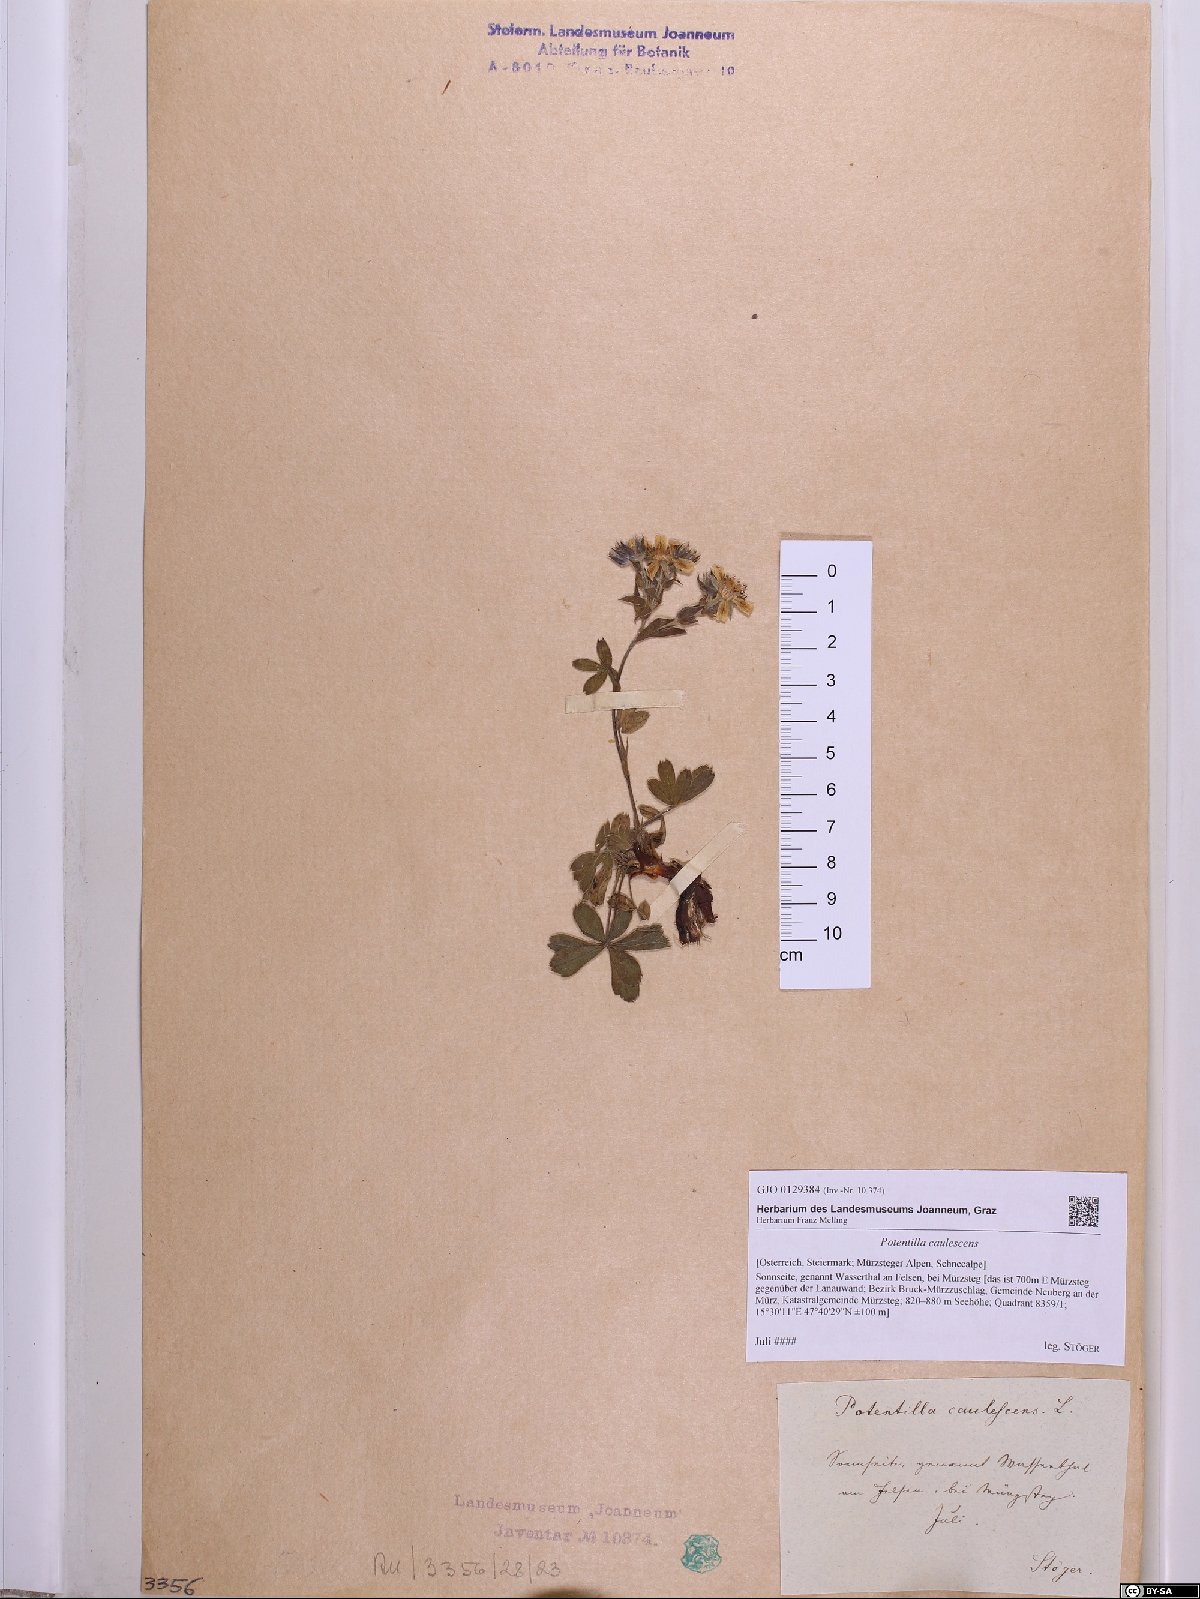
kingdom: Plantae
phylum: Tracheophyta
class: Magnoliopsida
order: Rosales
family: Rosaceae
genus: Potentilla
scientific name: Potentilla caulescens
